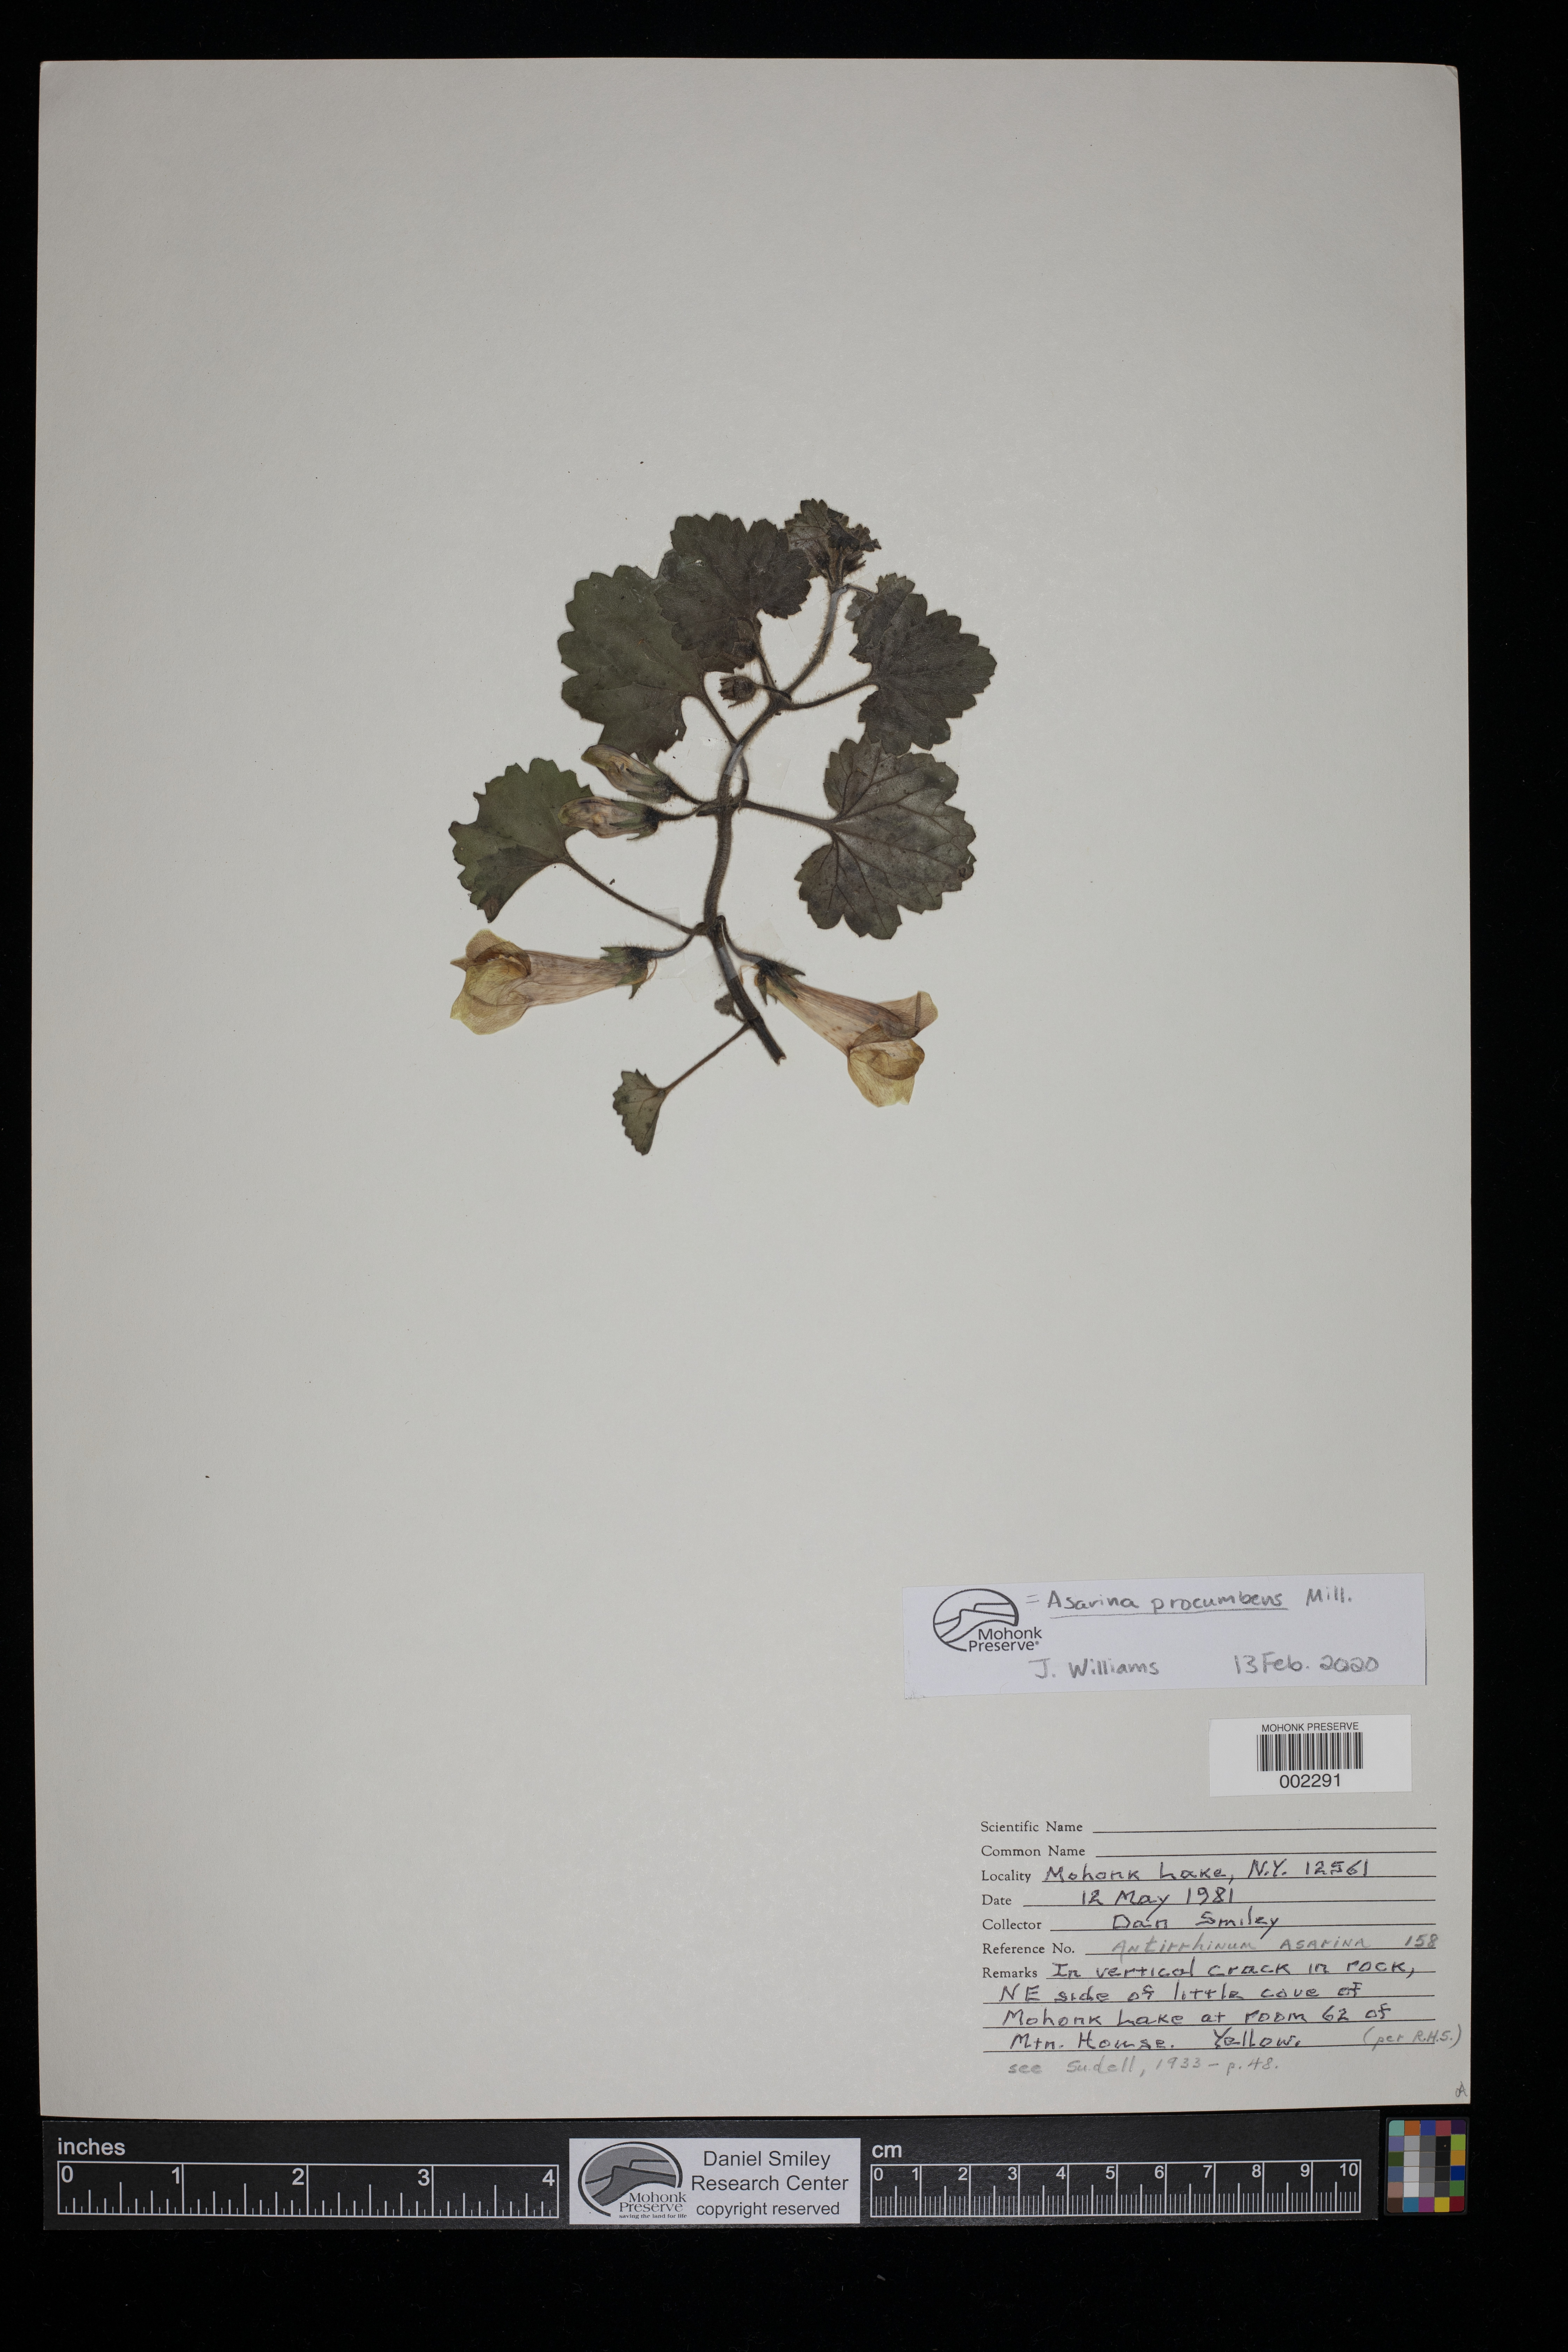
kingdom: Plantae
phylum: Tracheophyta
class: Magnoliopsida
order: Lamiales
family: Plantaginaceae
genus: Asarina
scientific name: Asarina procumbens
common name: Trailing snapdragon
